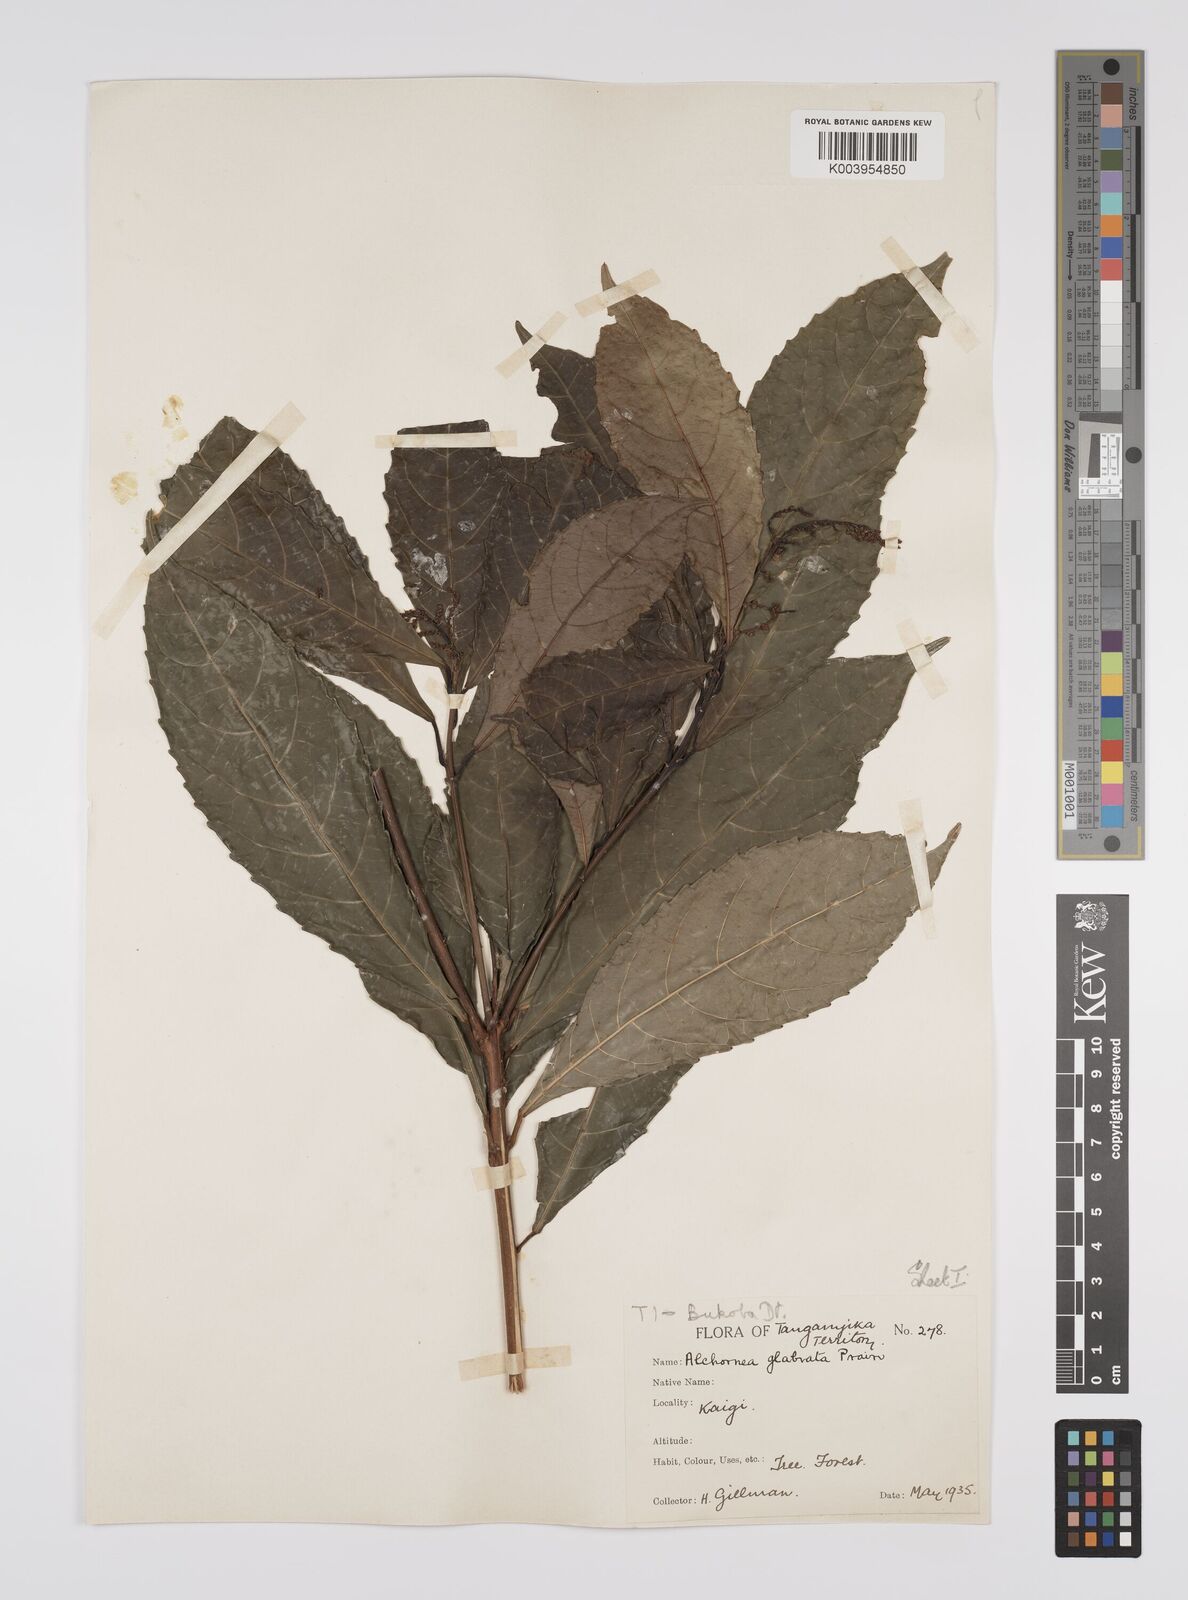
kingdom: Plantae
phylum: Tracheophyta
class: Magnoliopsida
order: Malpighiales
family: Euphorbiaceae
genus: Alchornea
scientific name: Alchornea hirtella
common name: Forest bead-string
